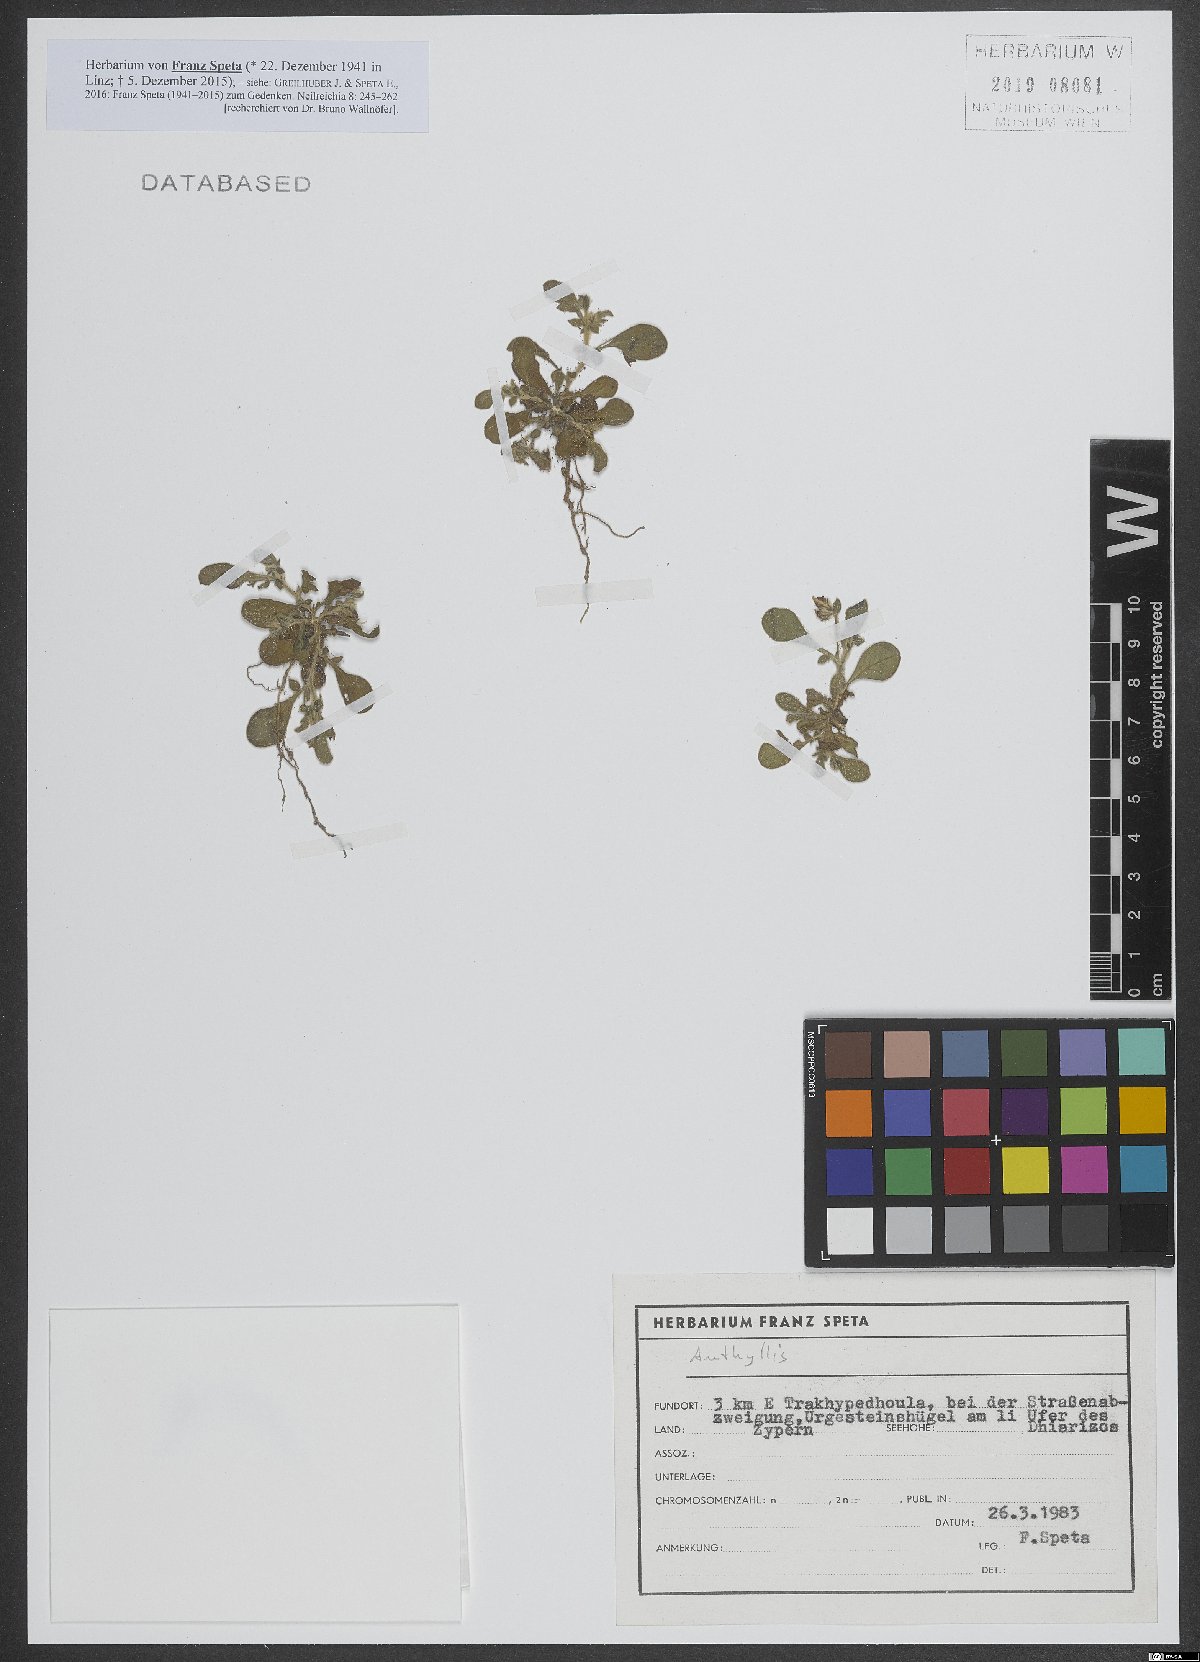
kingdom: Plantae
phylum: Tracheophyta
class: Magnoliopsida
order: Fabales
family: Fabaceae
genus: Anthyllis
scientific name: Anthyllis
